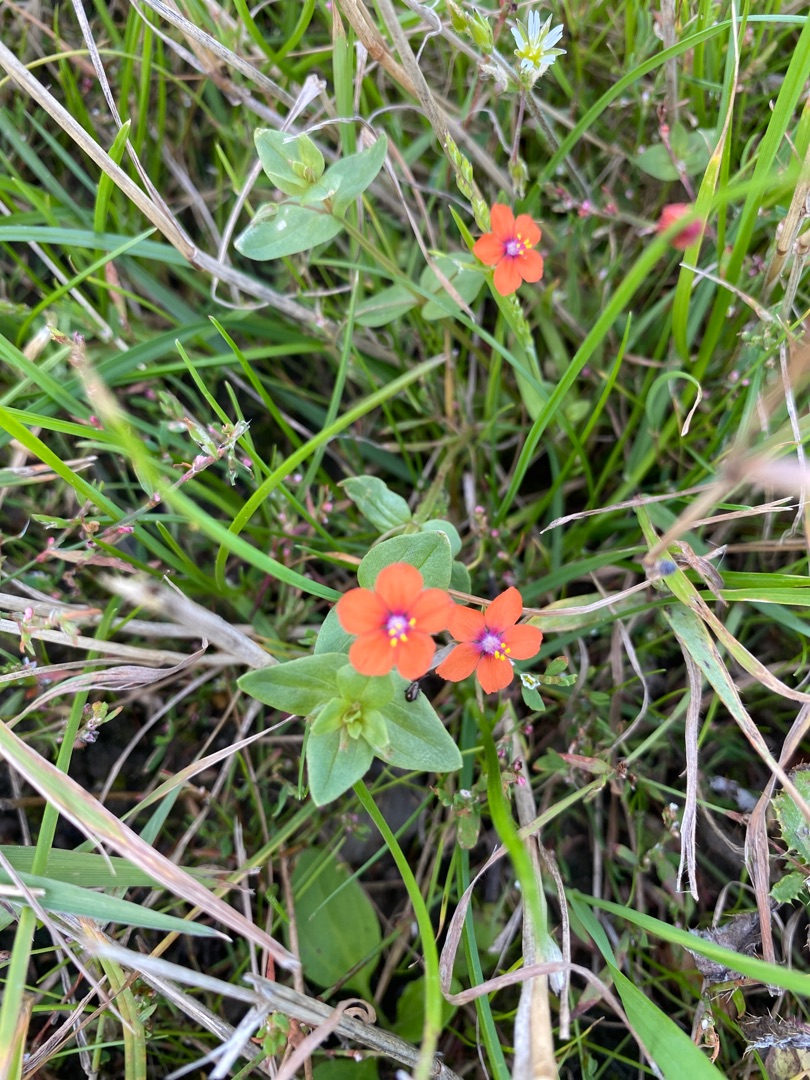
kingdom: Plantae
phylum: Tracheophyta
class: Magnoliopsida
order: Ericales
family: Primulaceae
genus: Lysimachia
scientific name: Lysimachia arvensis
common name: Rød arve
